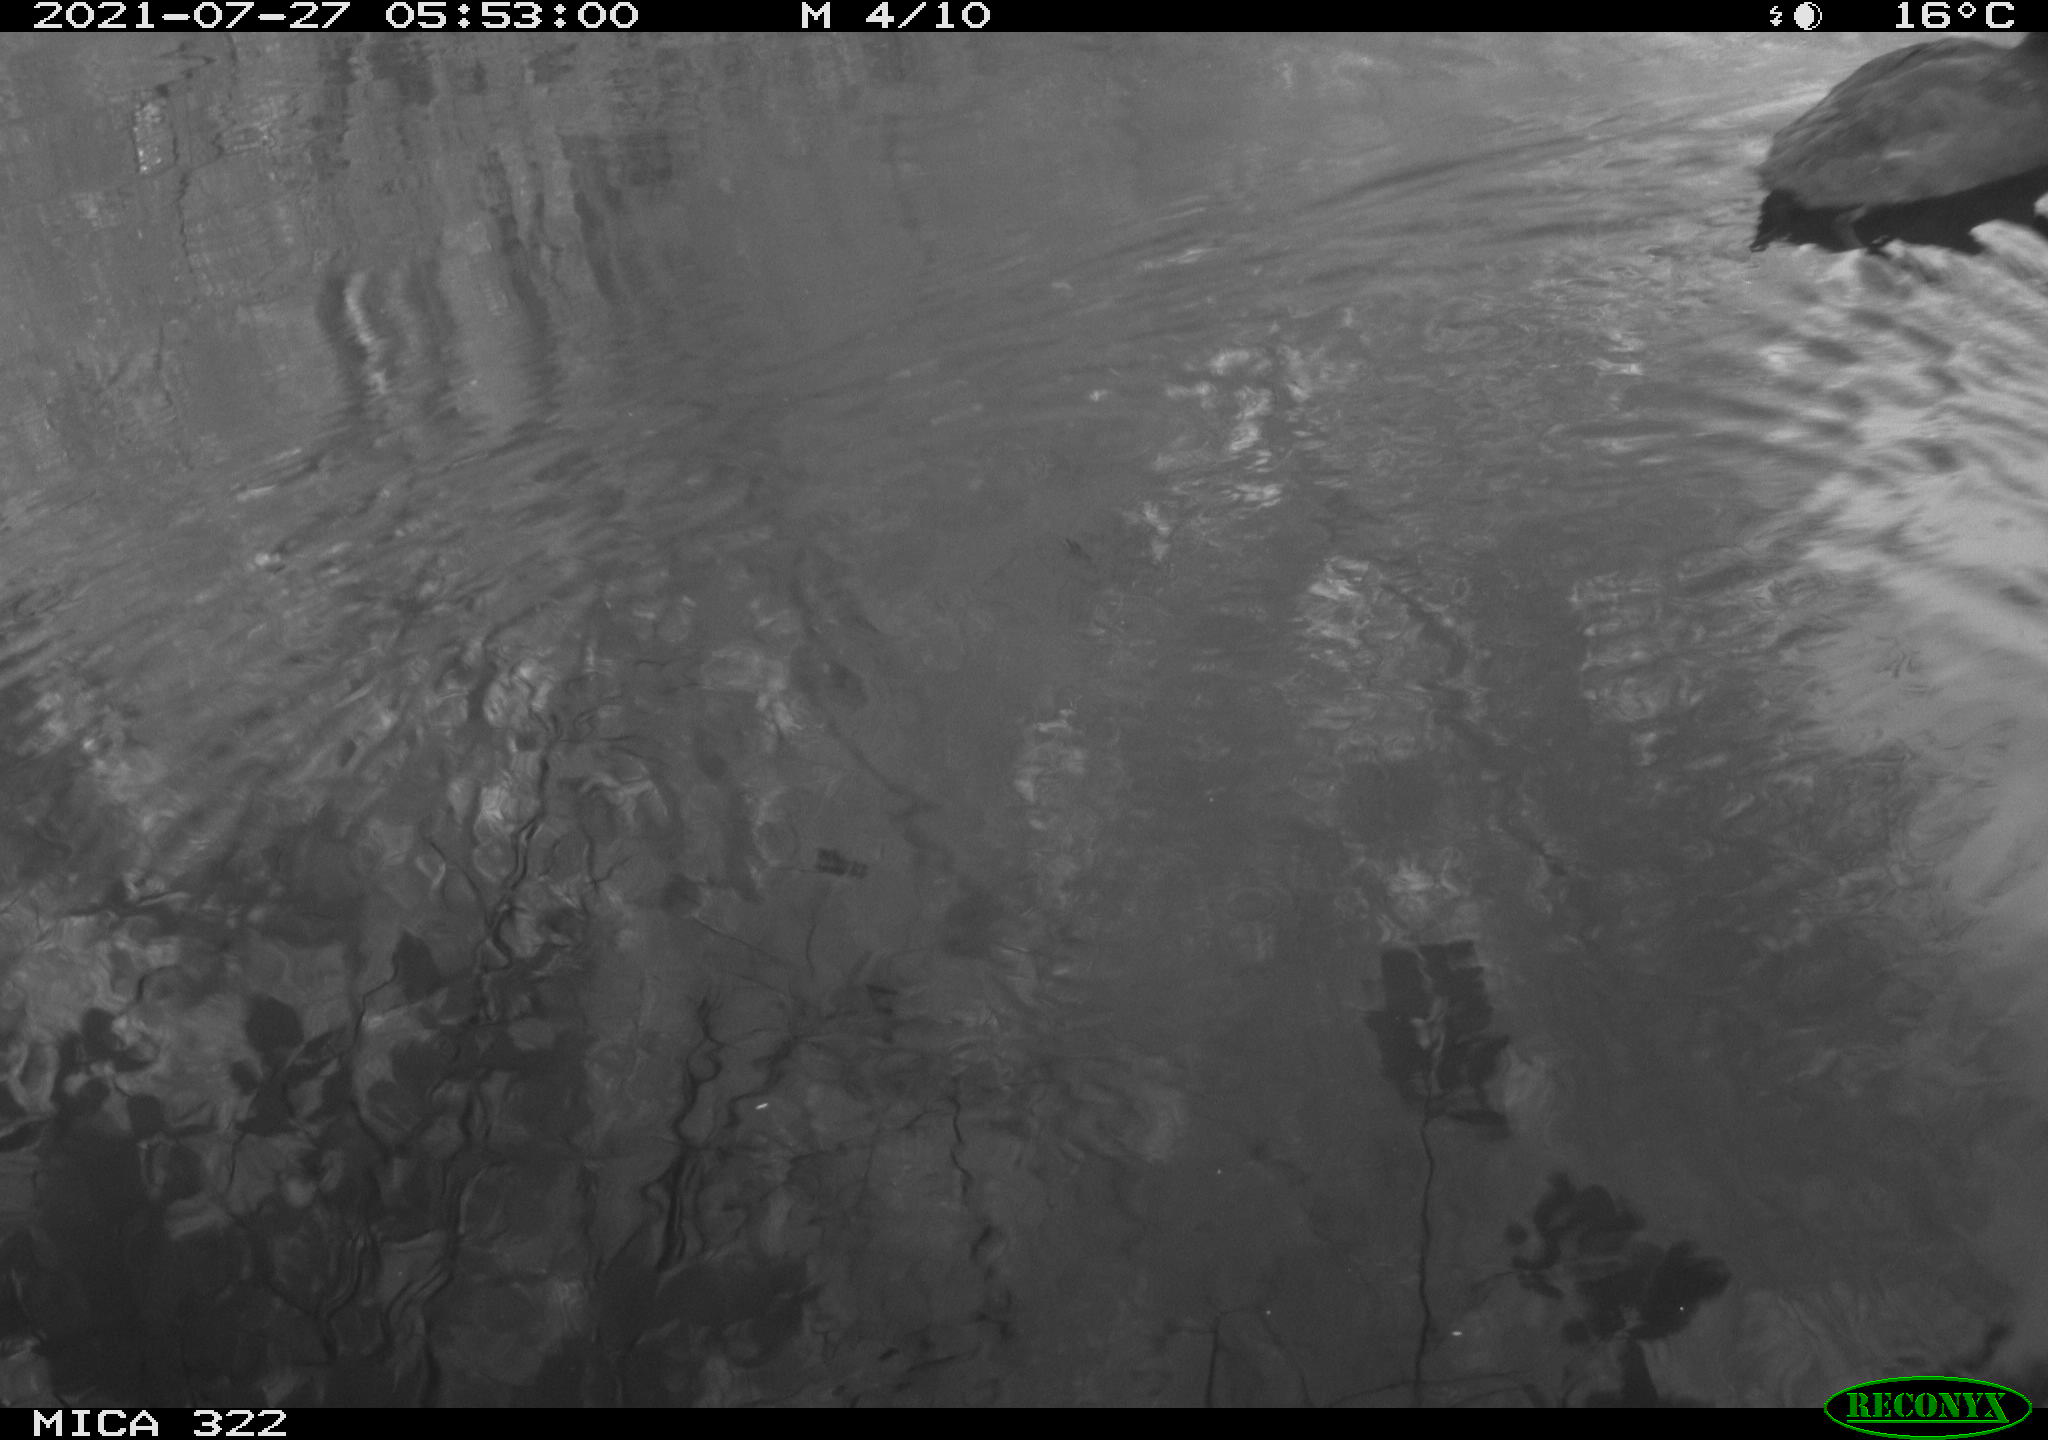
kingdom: Animalia
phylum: Chordata
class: Aves
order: Gruiformes
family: Rallidae
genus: Fulica
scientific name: Fulica atra
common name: Eurasian coot
